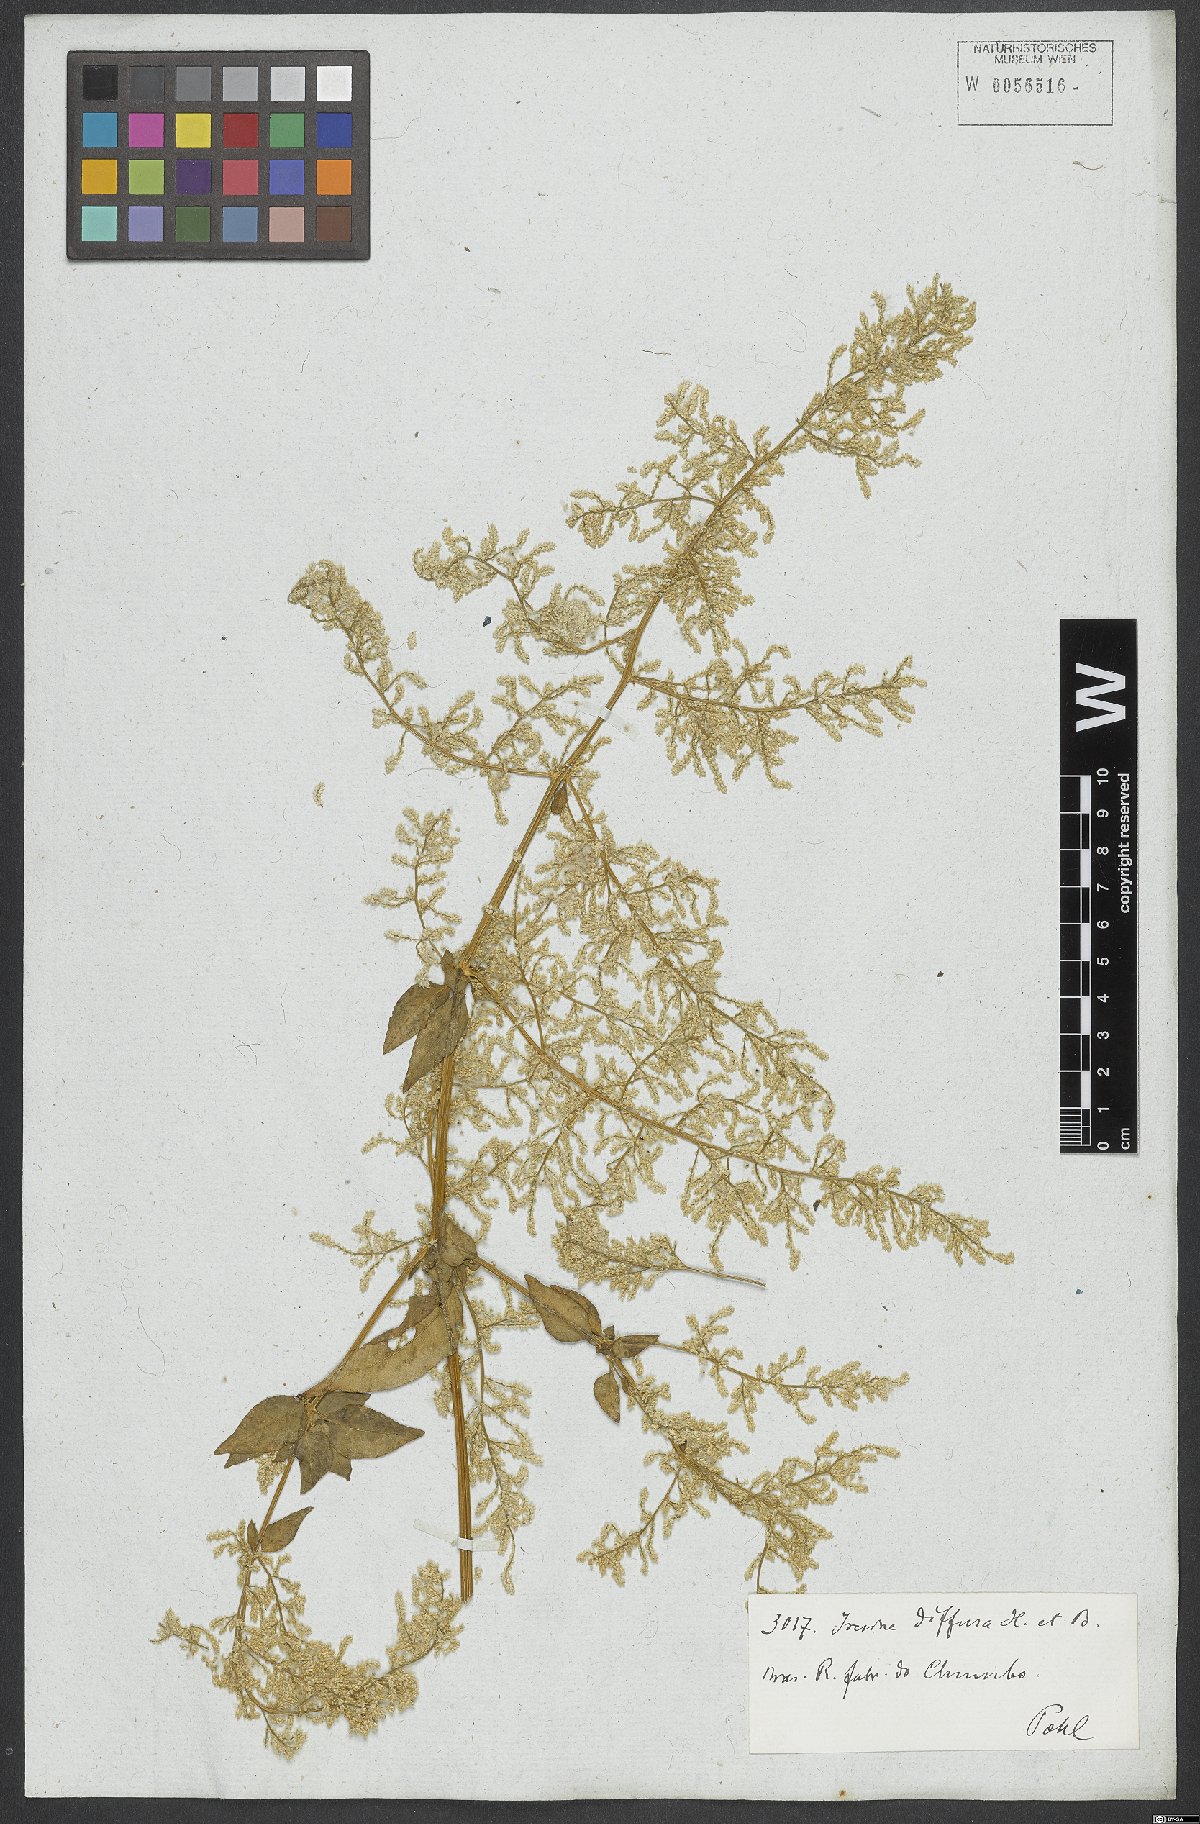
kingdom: Plantae
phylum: Tracheophyta
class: Magnoliopsida
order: Caryophyllales
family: Amaranthaceae
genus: Iresine
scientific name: Iresine diffusa
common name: Juba's-bush
